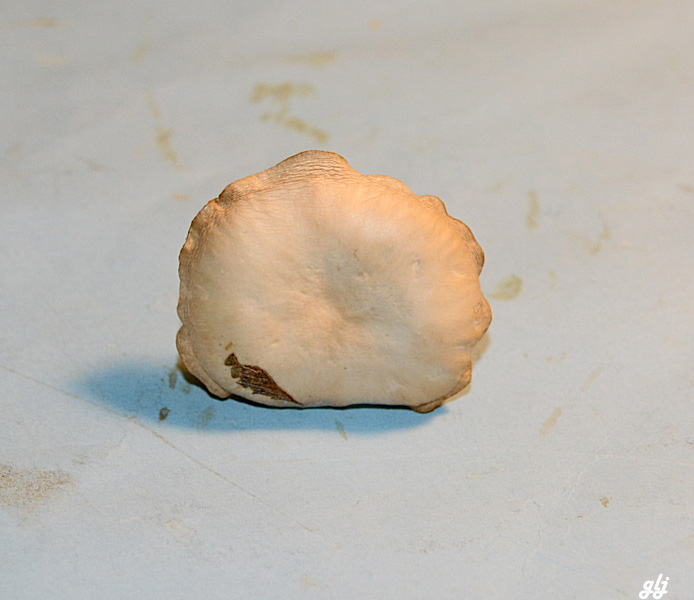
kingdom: Fungi
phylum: Basidiomycota
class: Agaricomycetes
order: Agaricales
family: Tricholomataceae
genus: Clitocybe
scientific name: Clitocybe
